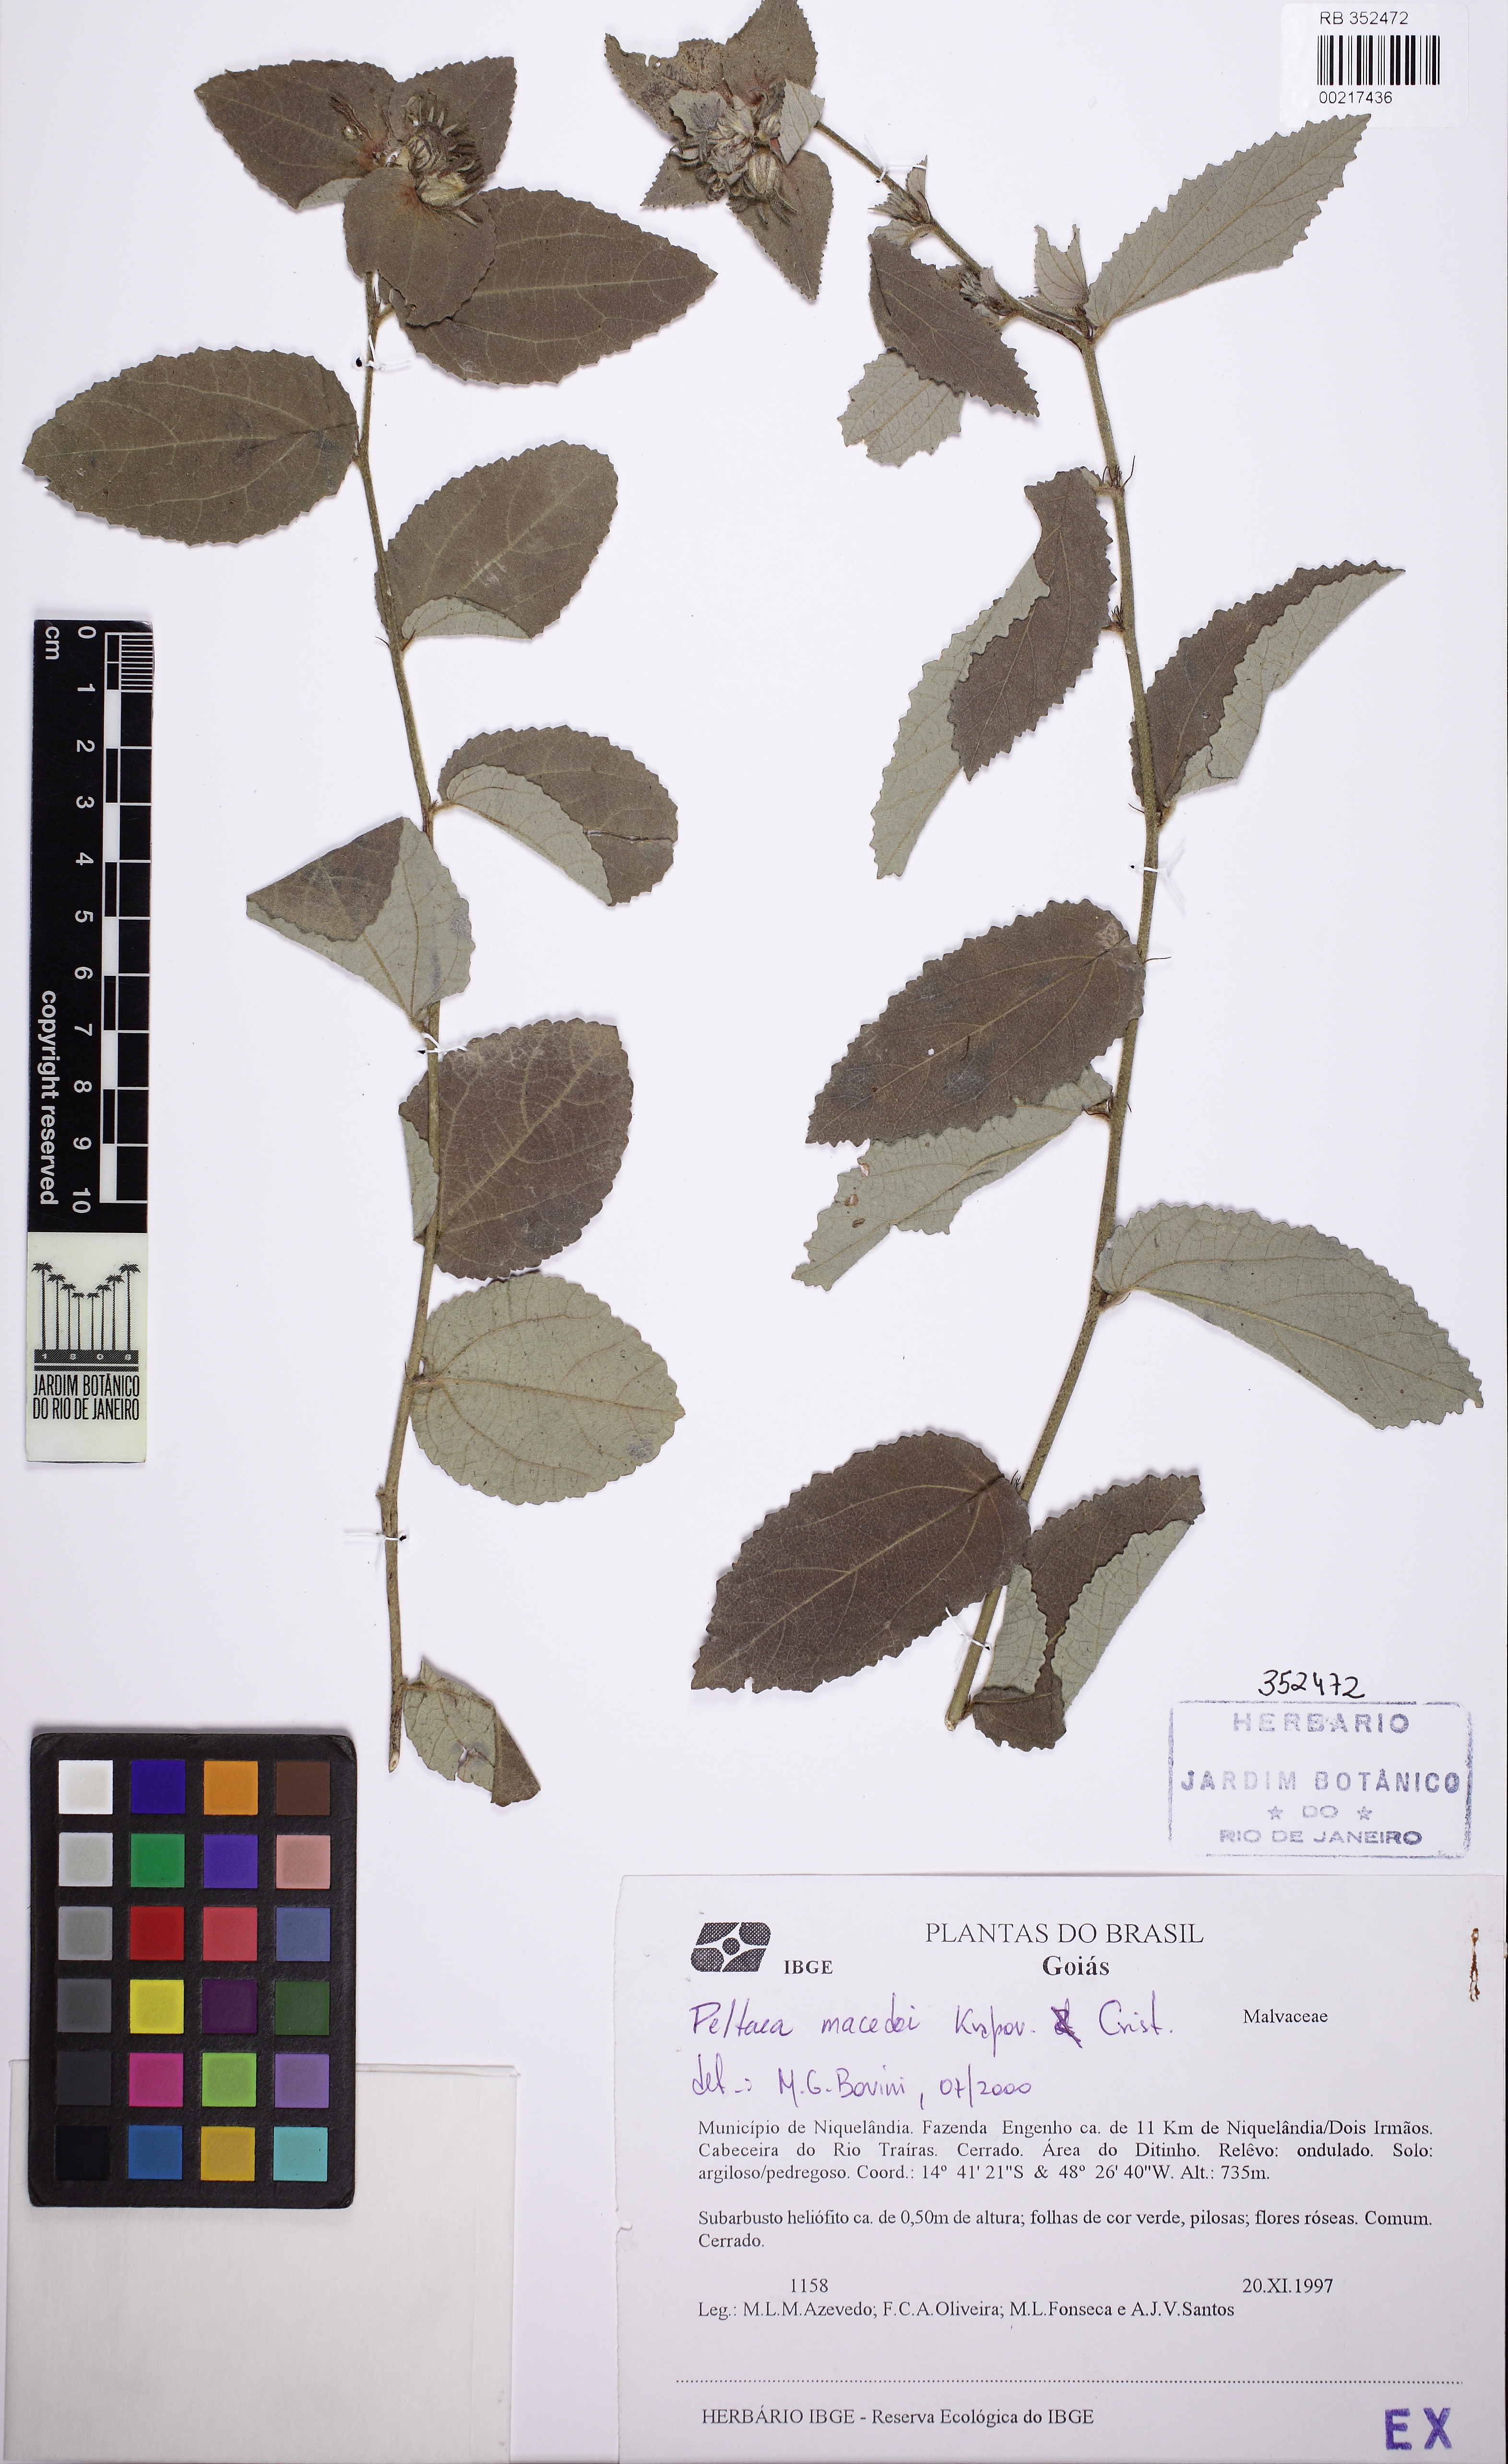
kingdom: Plantae
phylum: Tracheophyta
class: Magnoliopsida
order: Malvales
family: Malvaceae
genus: Peltaea
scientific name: Peltaea macedoi
